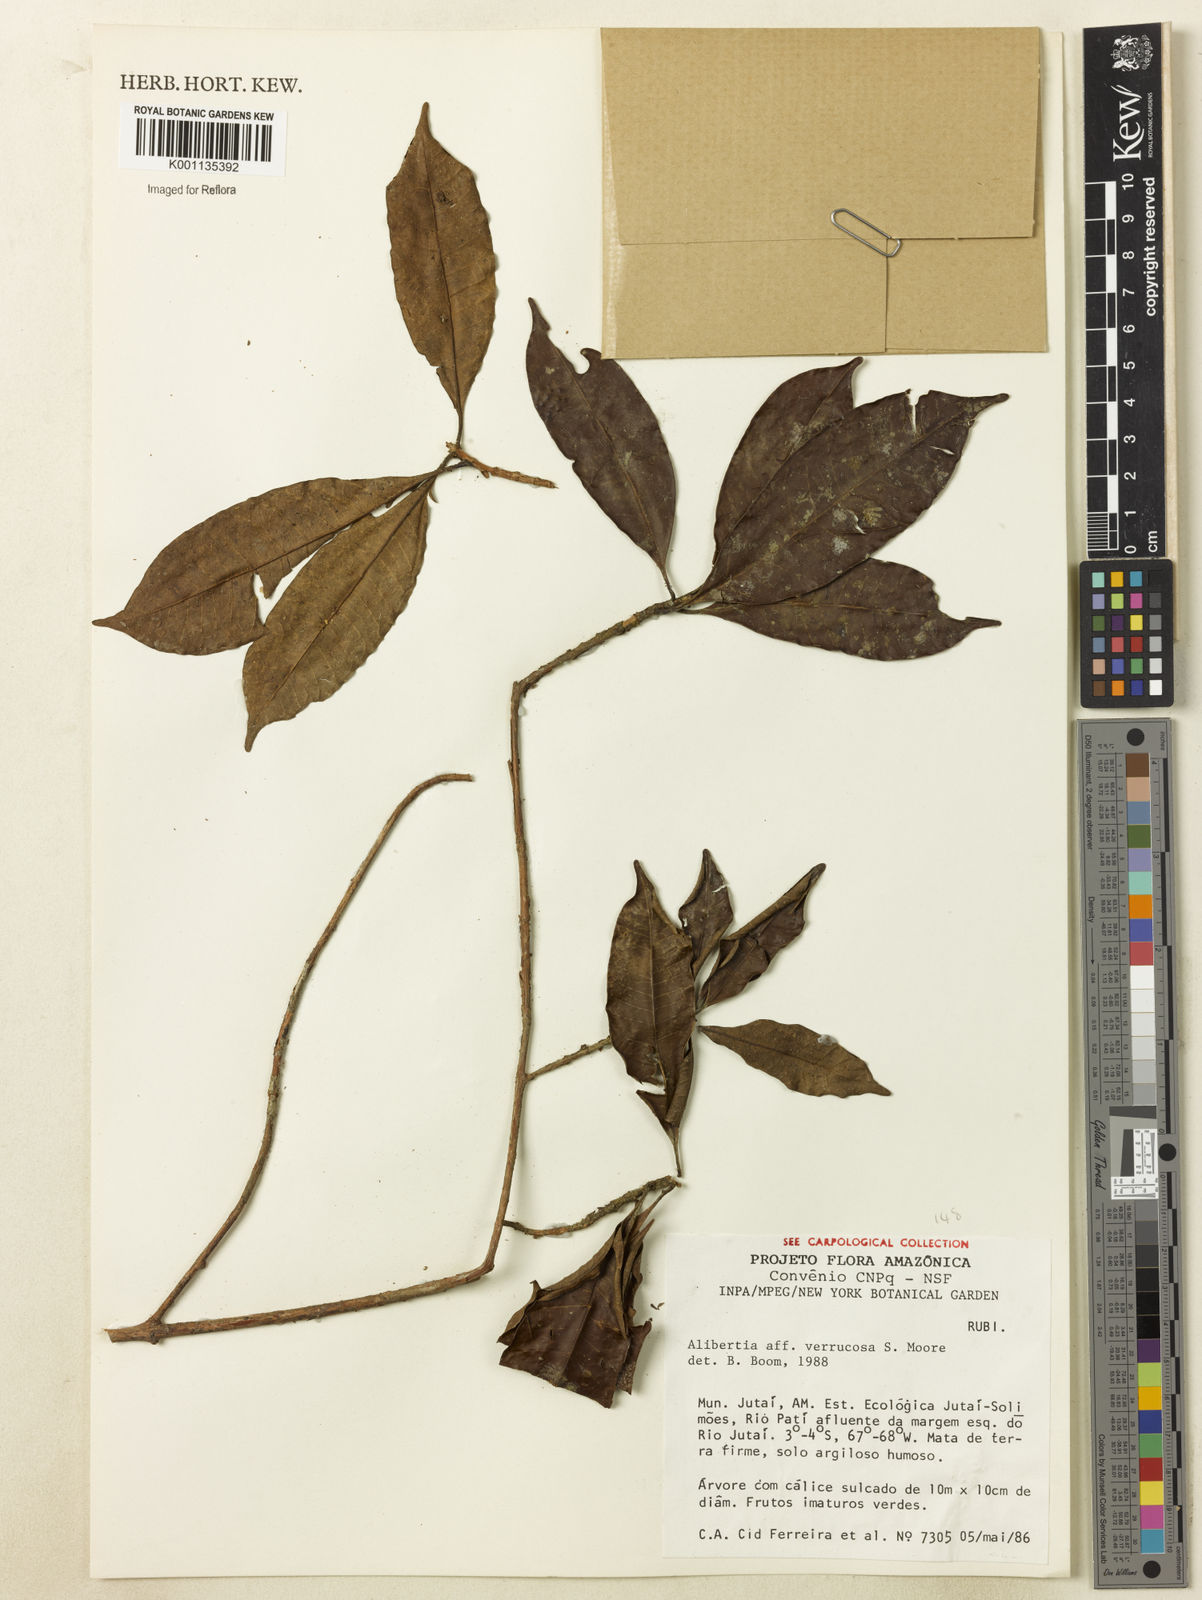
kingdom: Plantae
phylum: Tracheophyta
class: Magnoliopsida
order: Gentianales
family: Rubiaceae
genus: Cordiera
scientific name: Cordiera macrophylla
